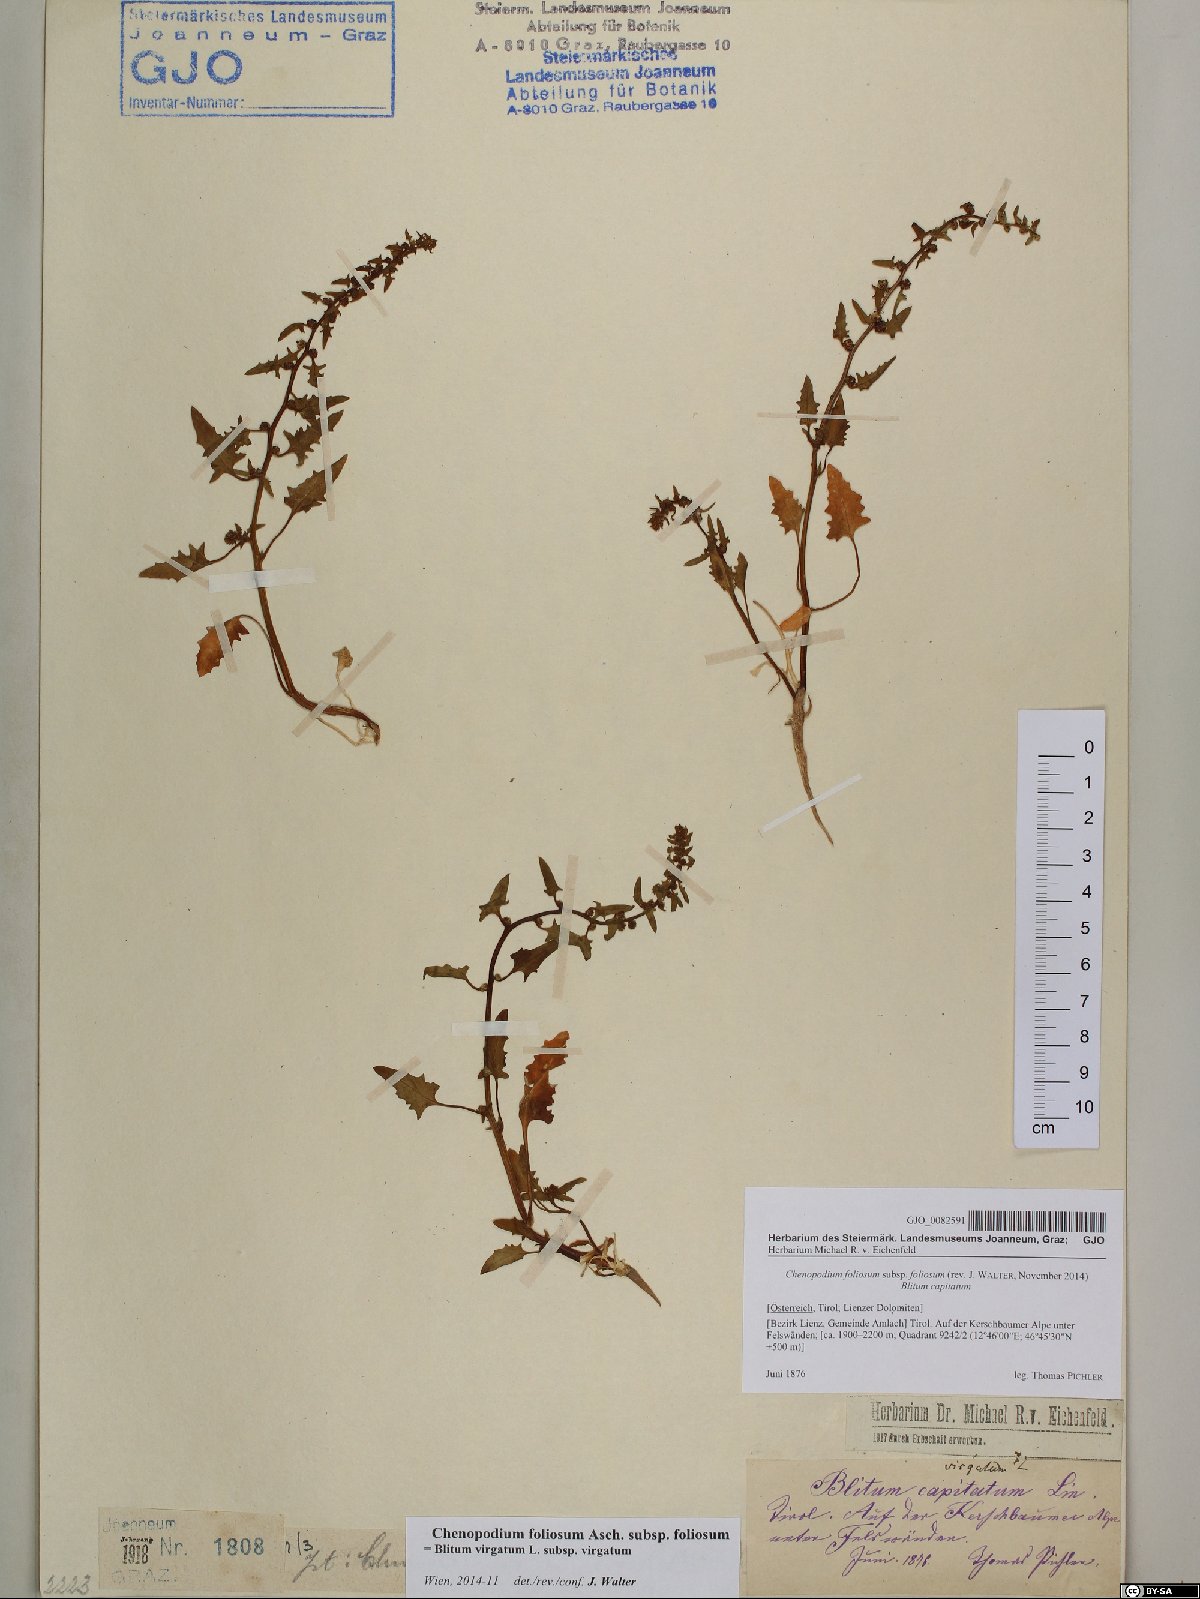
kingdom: Plantae
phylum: Tracheophyta
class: Magnoliopsida
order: Caryophyllales
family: Amaranthaceae
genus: Blitum
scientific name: Blitum virgatum
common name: Strawberry goosefoot
